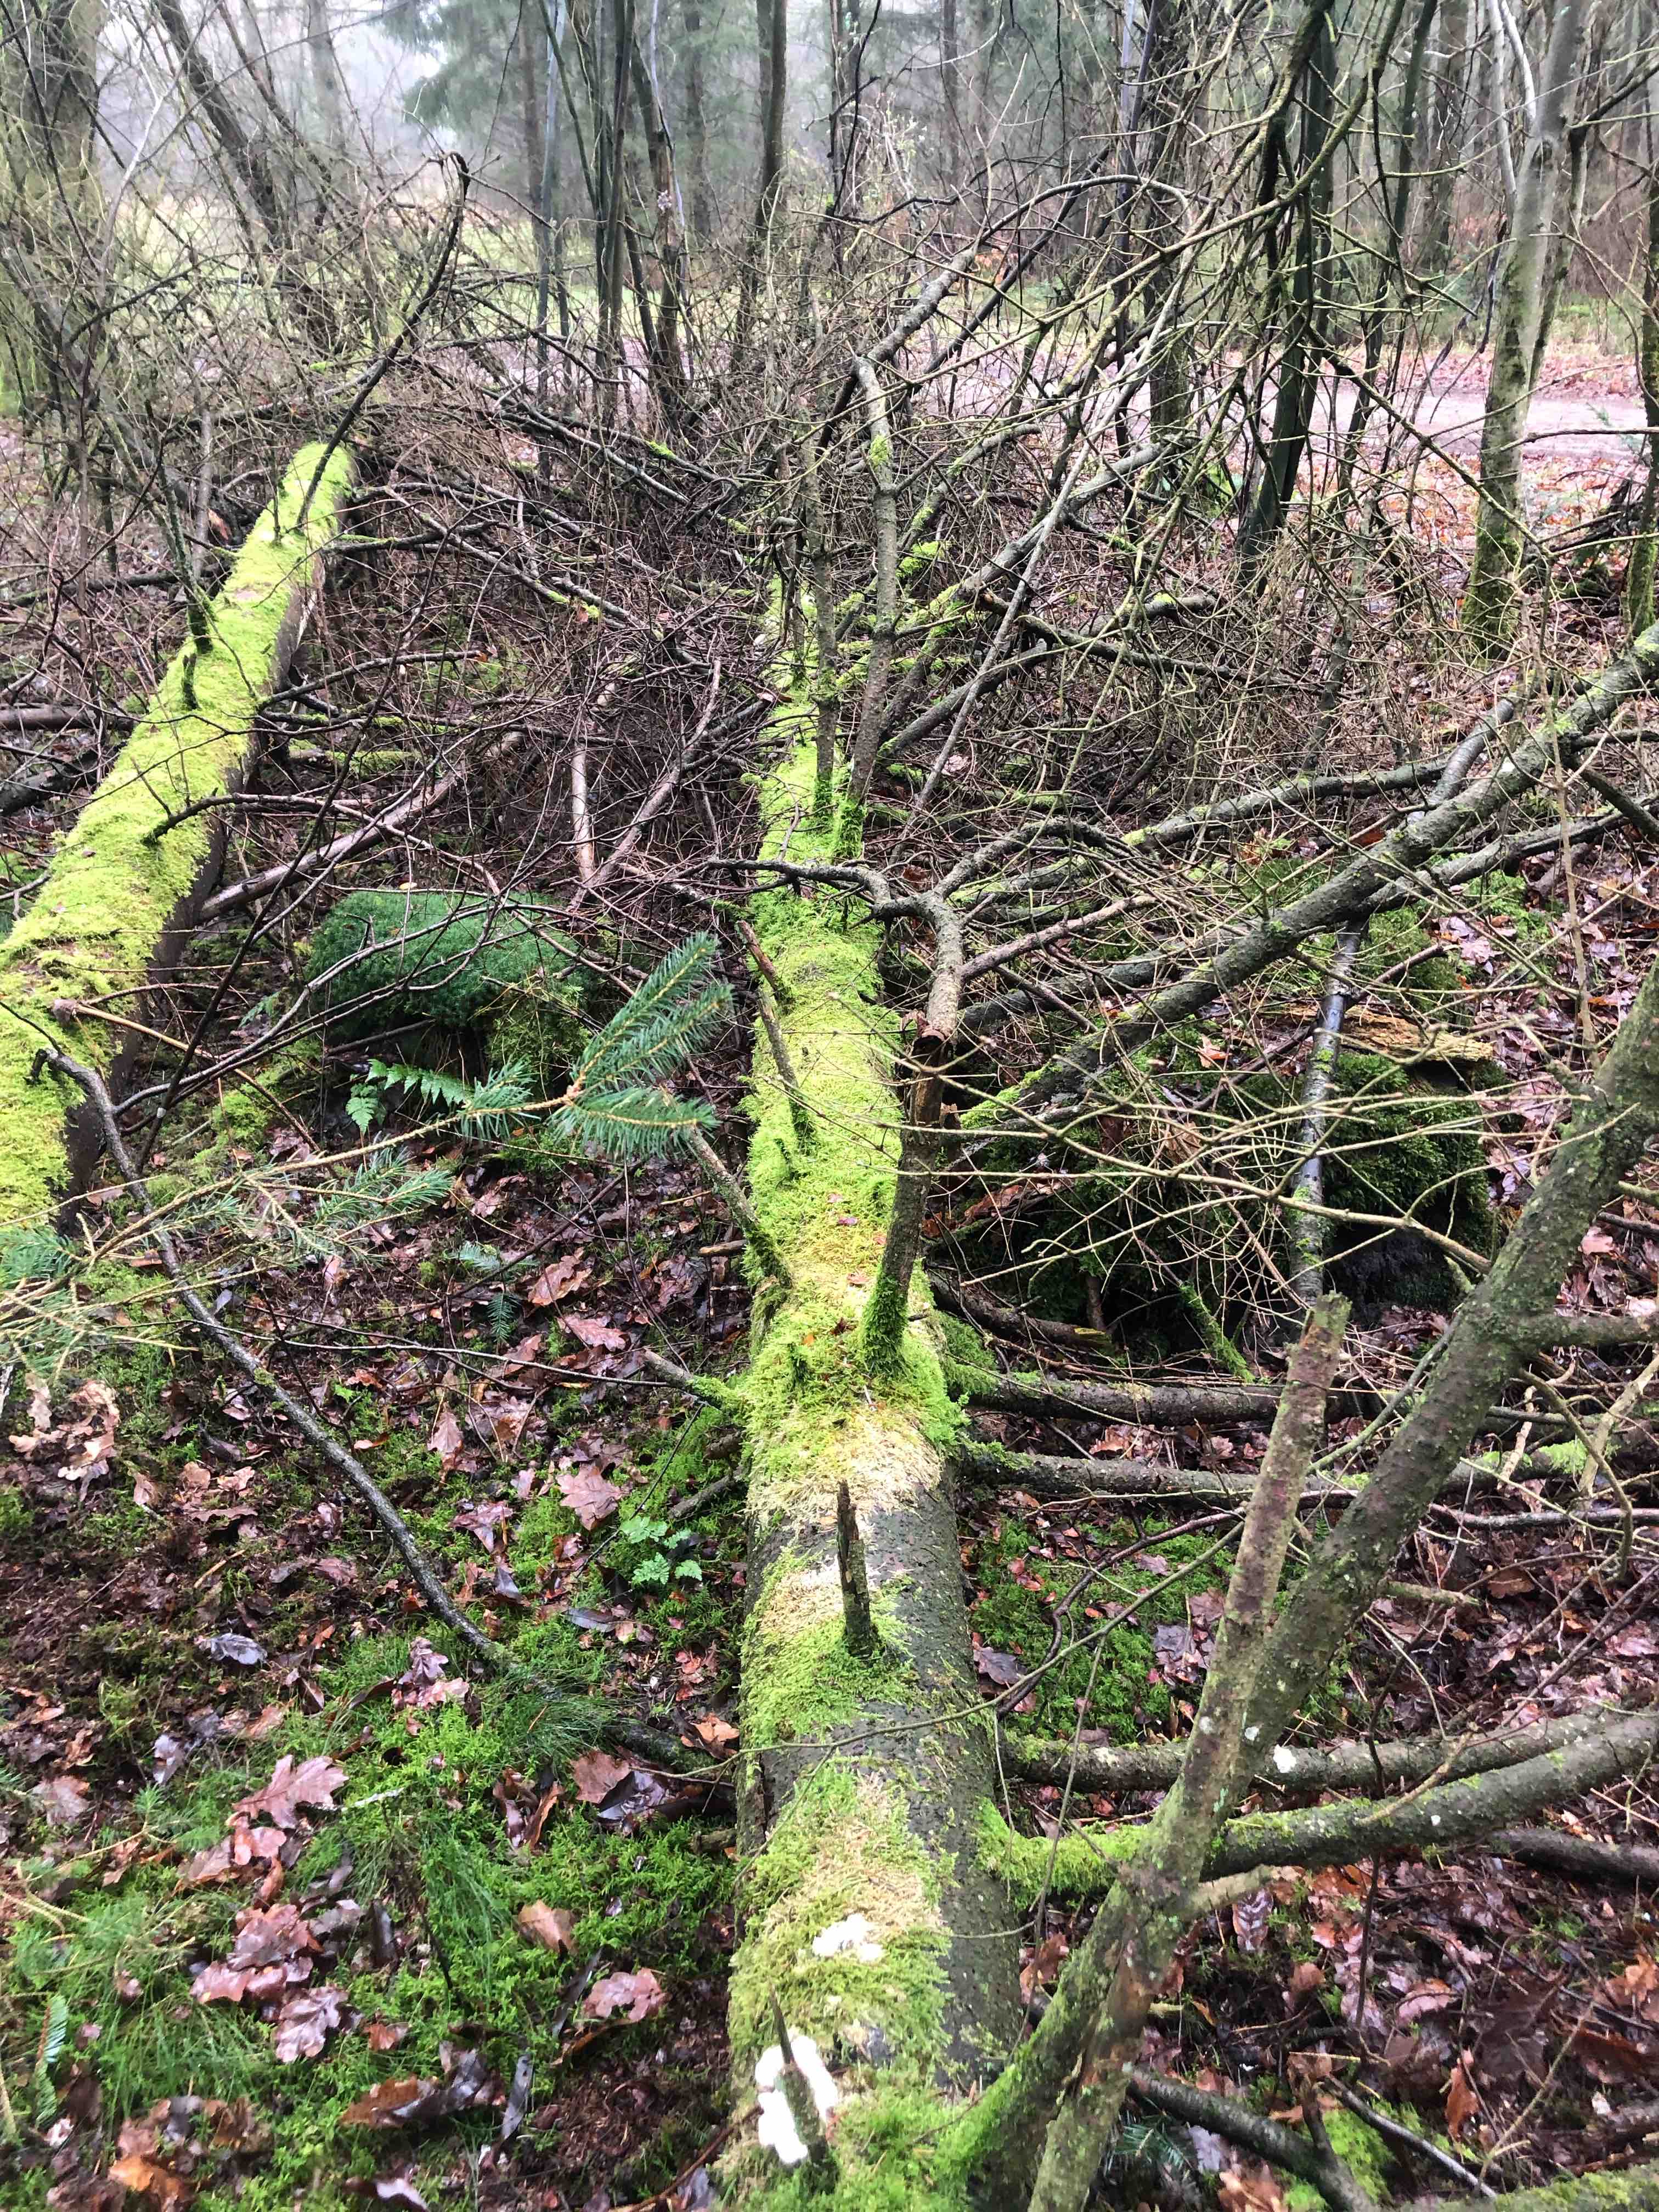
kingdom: Fungi
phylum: Basidiomycota
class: Agaricomycetes
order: Polyporales
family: Incrustoporiaceae
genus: Tyromyces
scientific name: Tyromyces lacteus
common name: mælkehvid kødporesvamp
